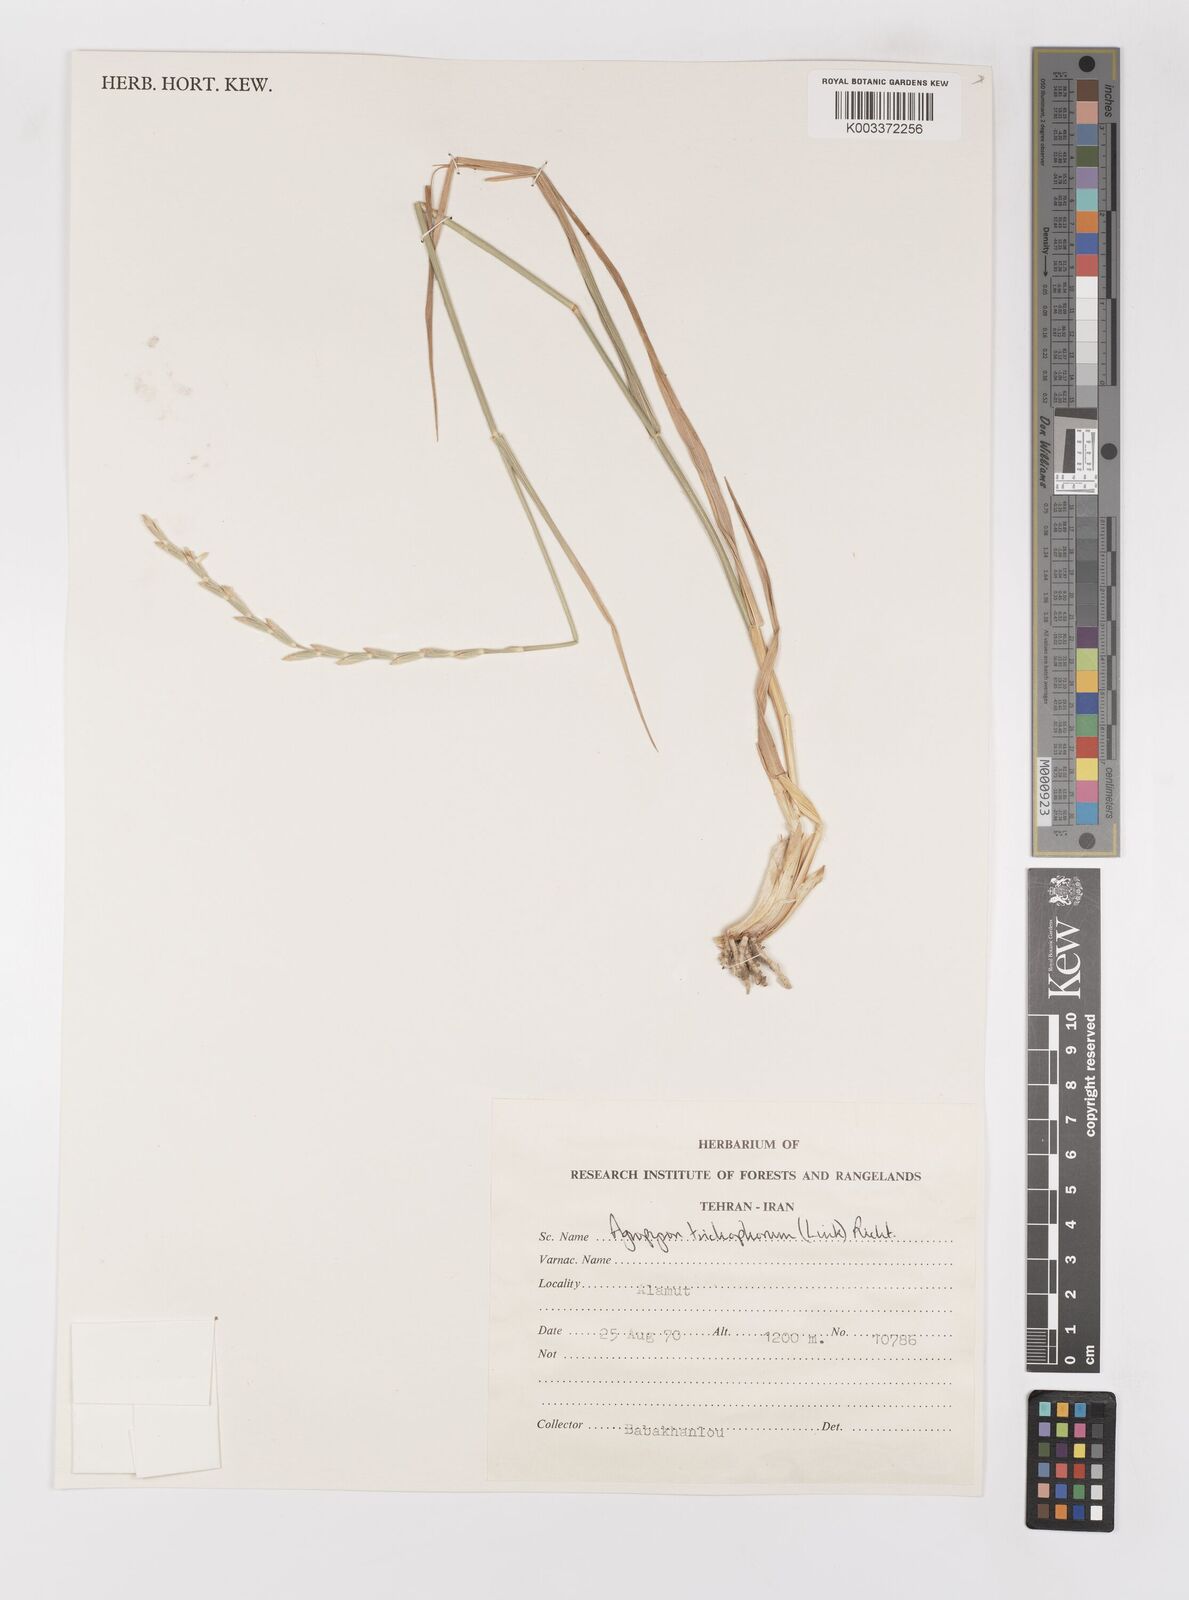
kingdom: Plantae
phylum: Tracheophyta
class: Liliopsida
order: Poales
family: Poaceae
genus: Thinopyrum
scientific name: Thinopyrum intermedium
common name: Intermediate wheatgrass
